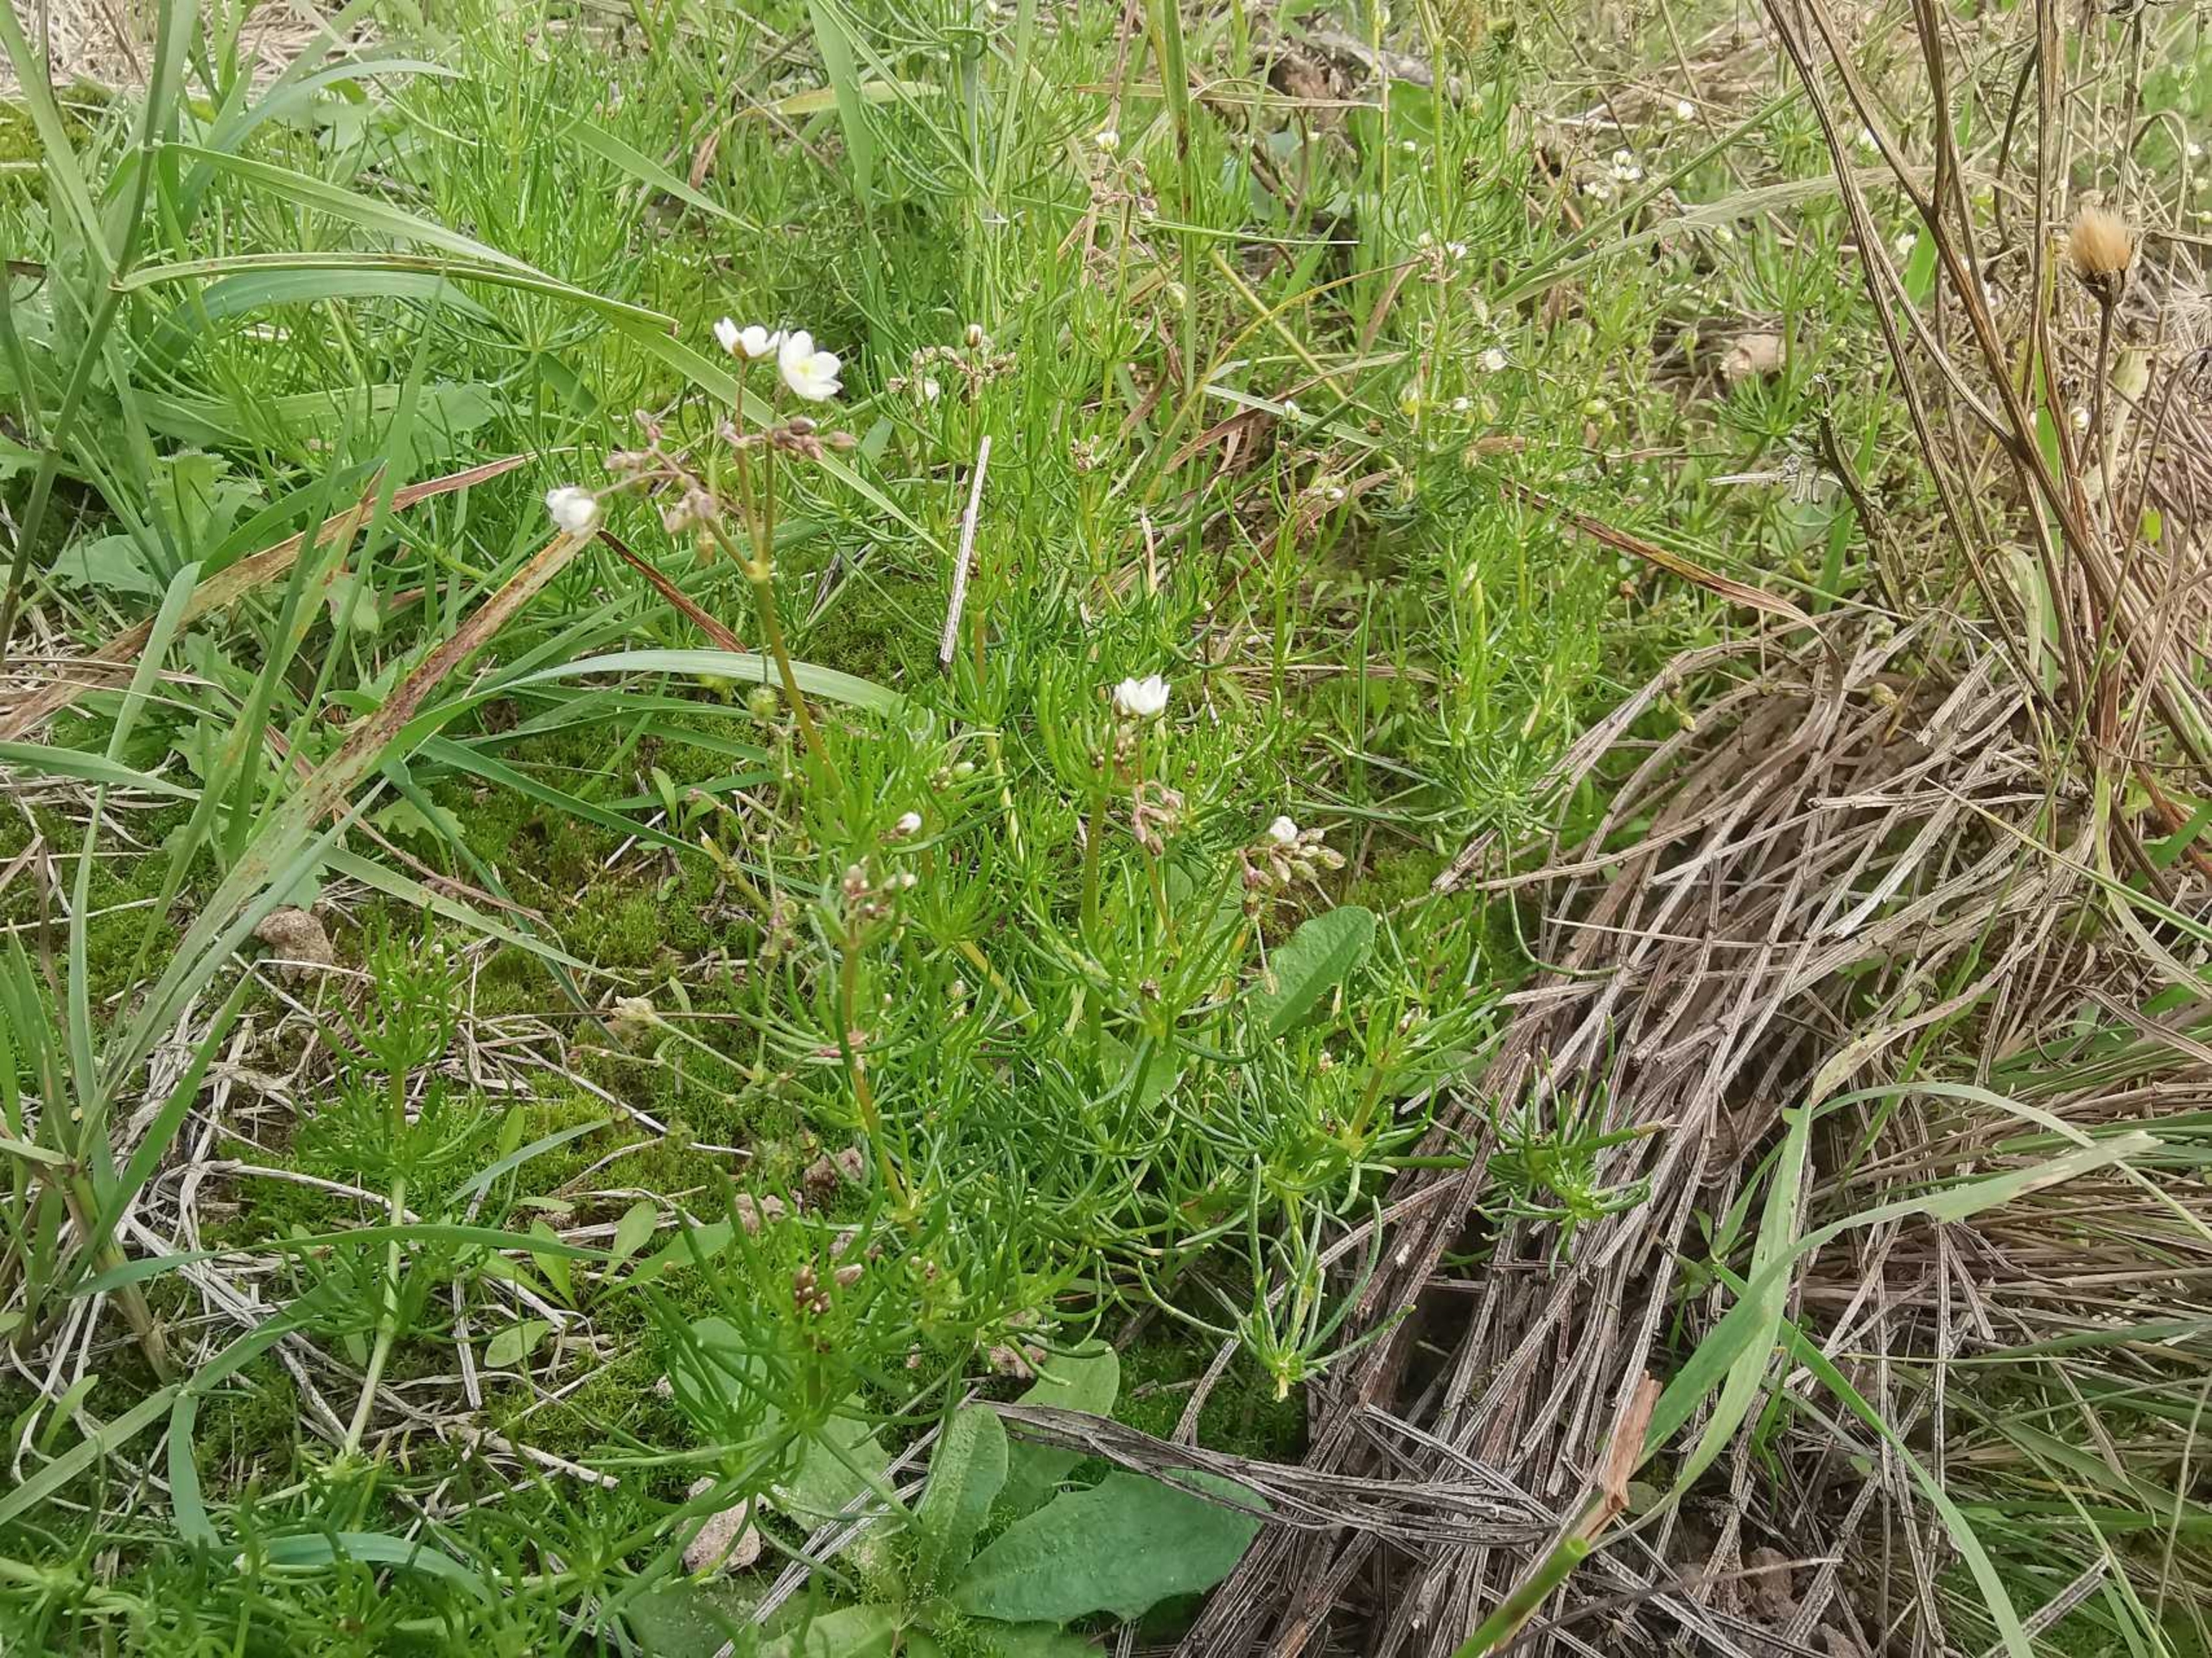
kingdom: Plantae
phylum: Tracheophyta
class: Magnoliopsida
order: Caryophyllales
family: Caryophyllaceae
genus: Spergula
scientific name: Spergula arvensis
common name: Almindelig spergel
